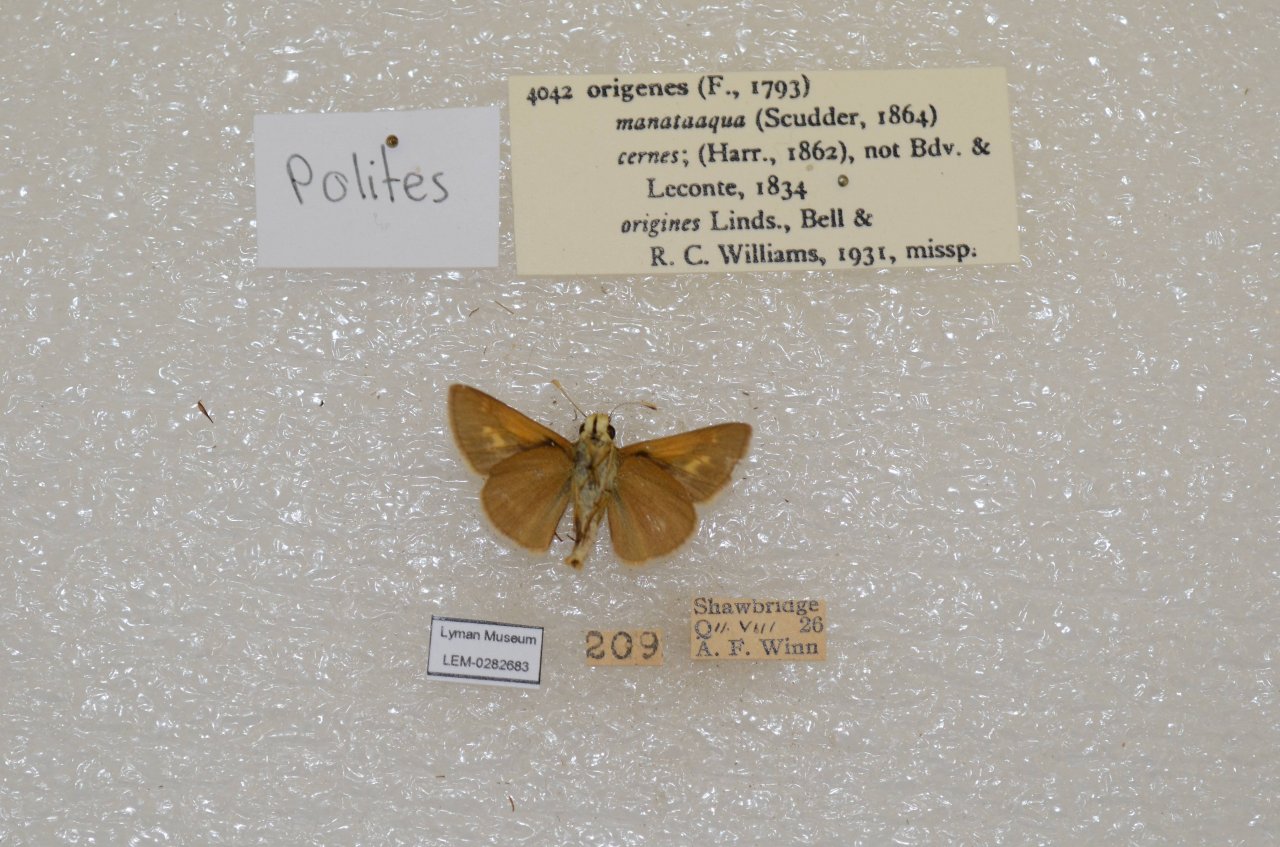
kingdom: Animalia
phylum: Arthropoda
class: Insecta
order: Lepidoptera
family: Hesperiidae
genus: Polites
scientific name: Polites
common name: Crossline Skipper
